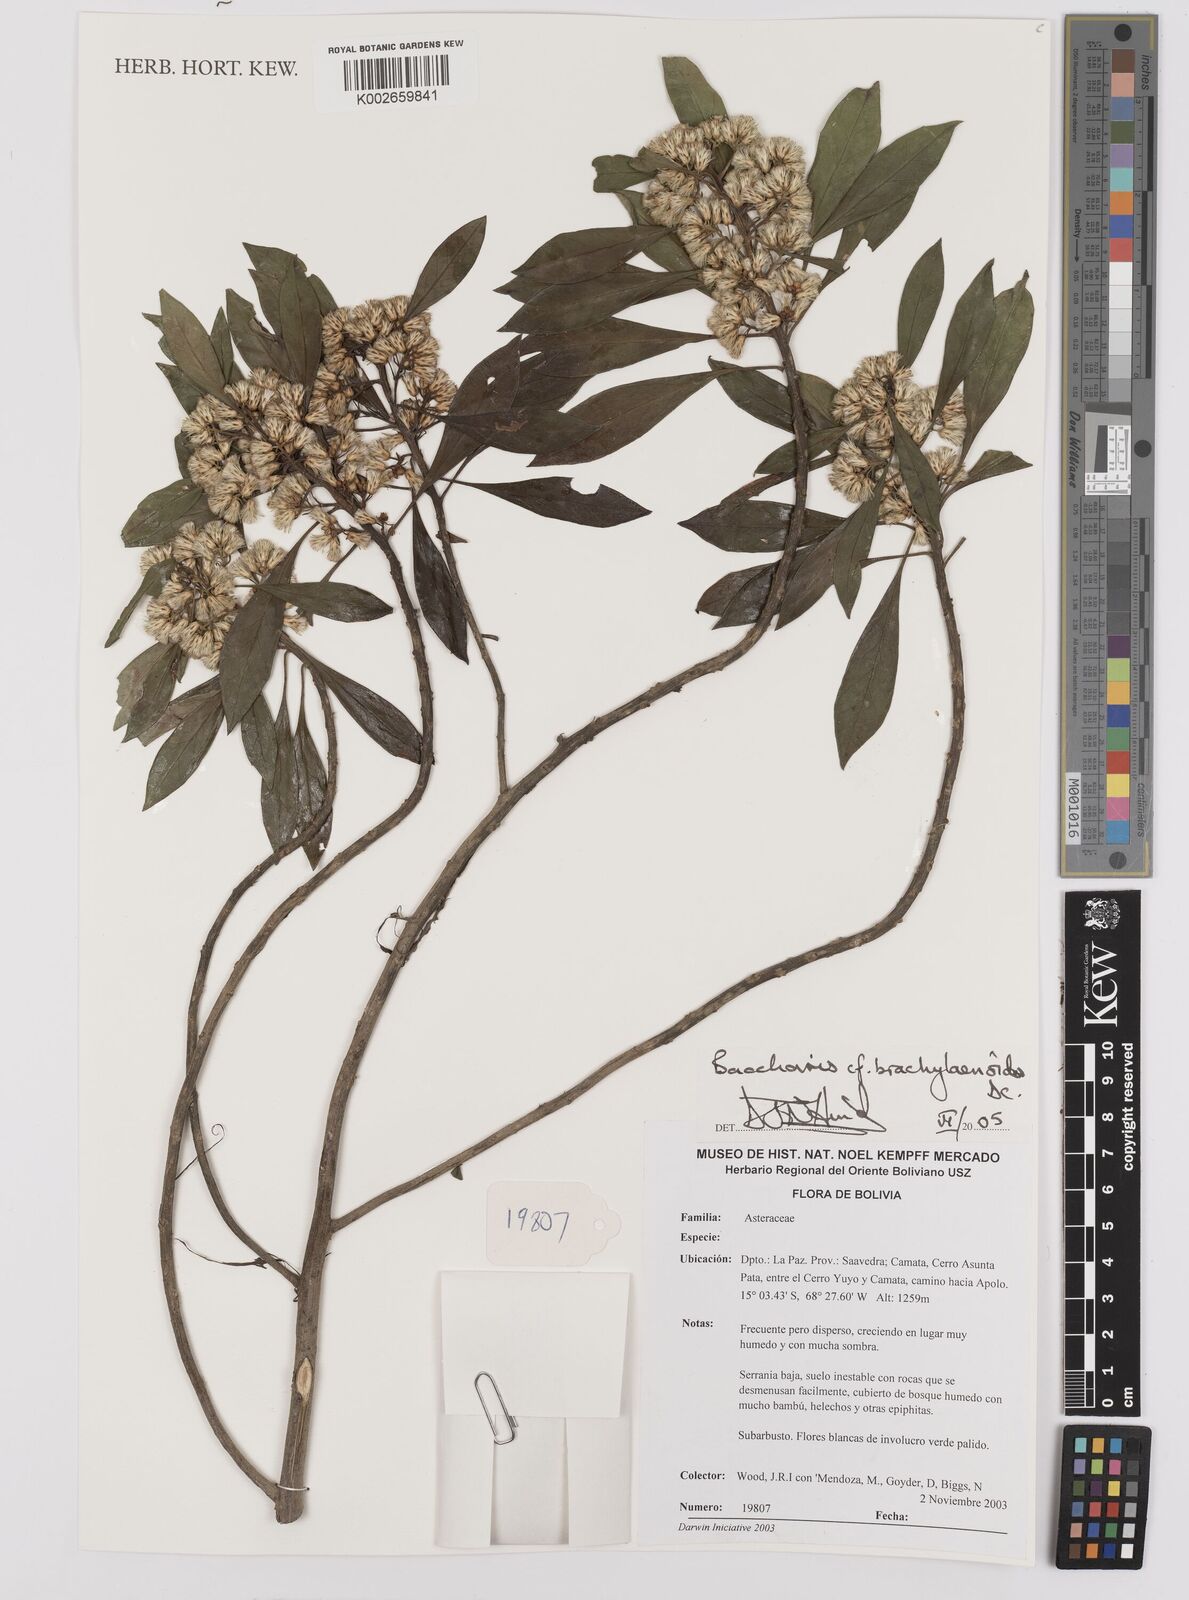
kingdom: Plantae
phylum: Tracheophyta
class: Magnoliopsida
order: Asterales
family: Asteraceae
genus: Baccharis
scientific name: Baccharis oblongifolia
